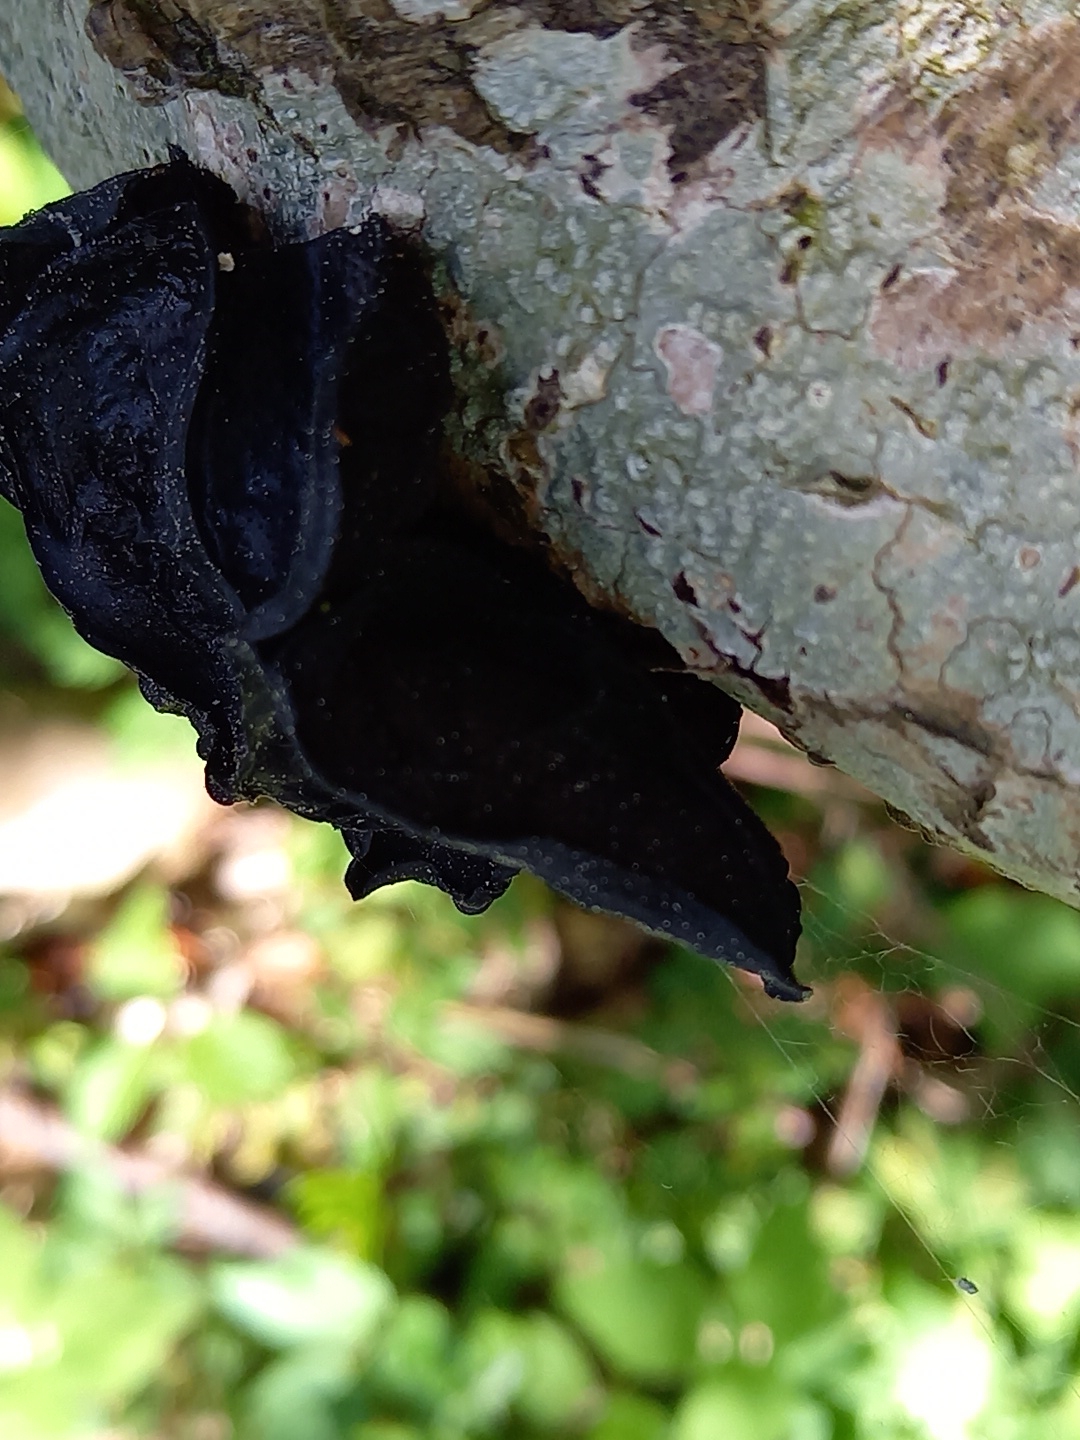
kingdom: Fungi
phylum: Basidiomycota
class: Agaricomycetes
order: Auriculariales
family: Auriculariaceae
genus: Exidia
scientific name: Exidia glandulosa
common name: ege-bævretop
